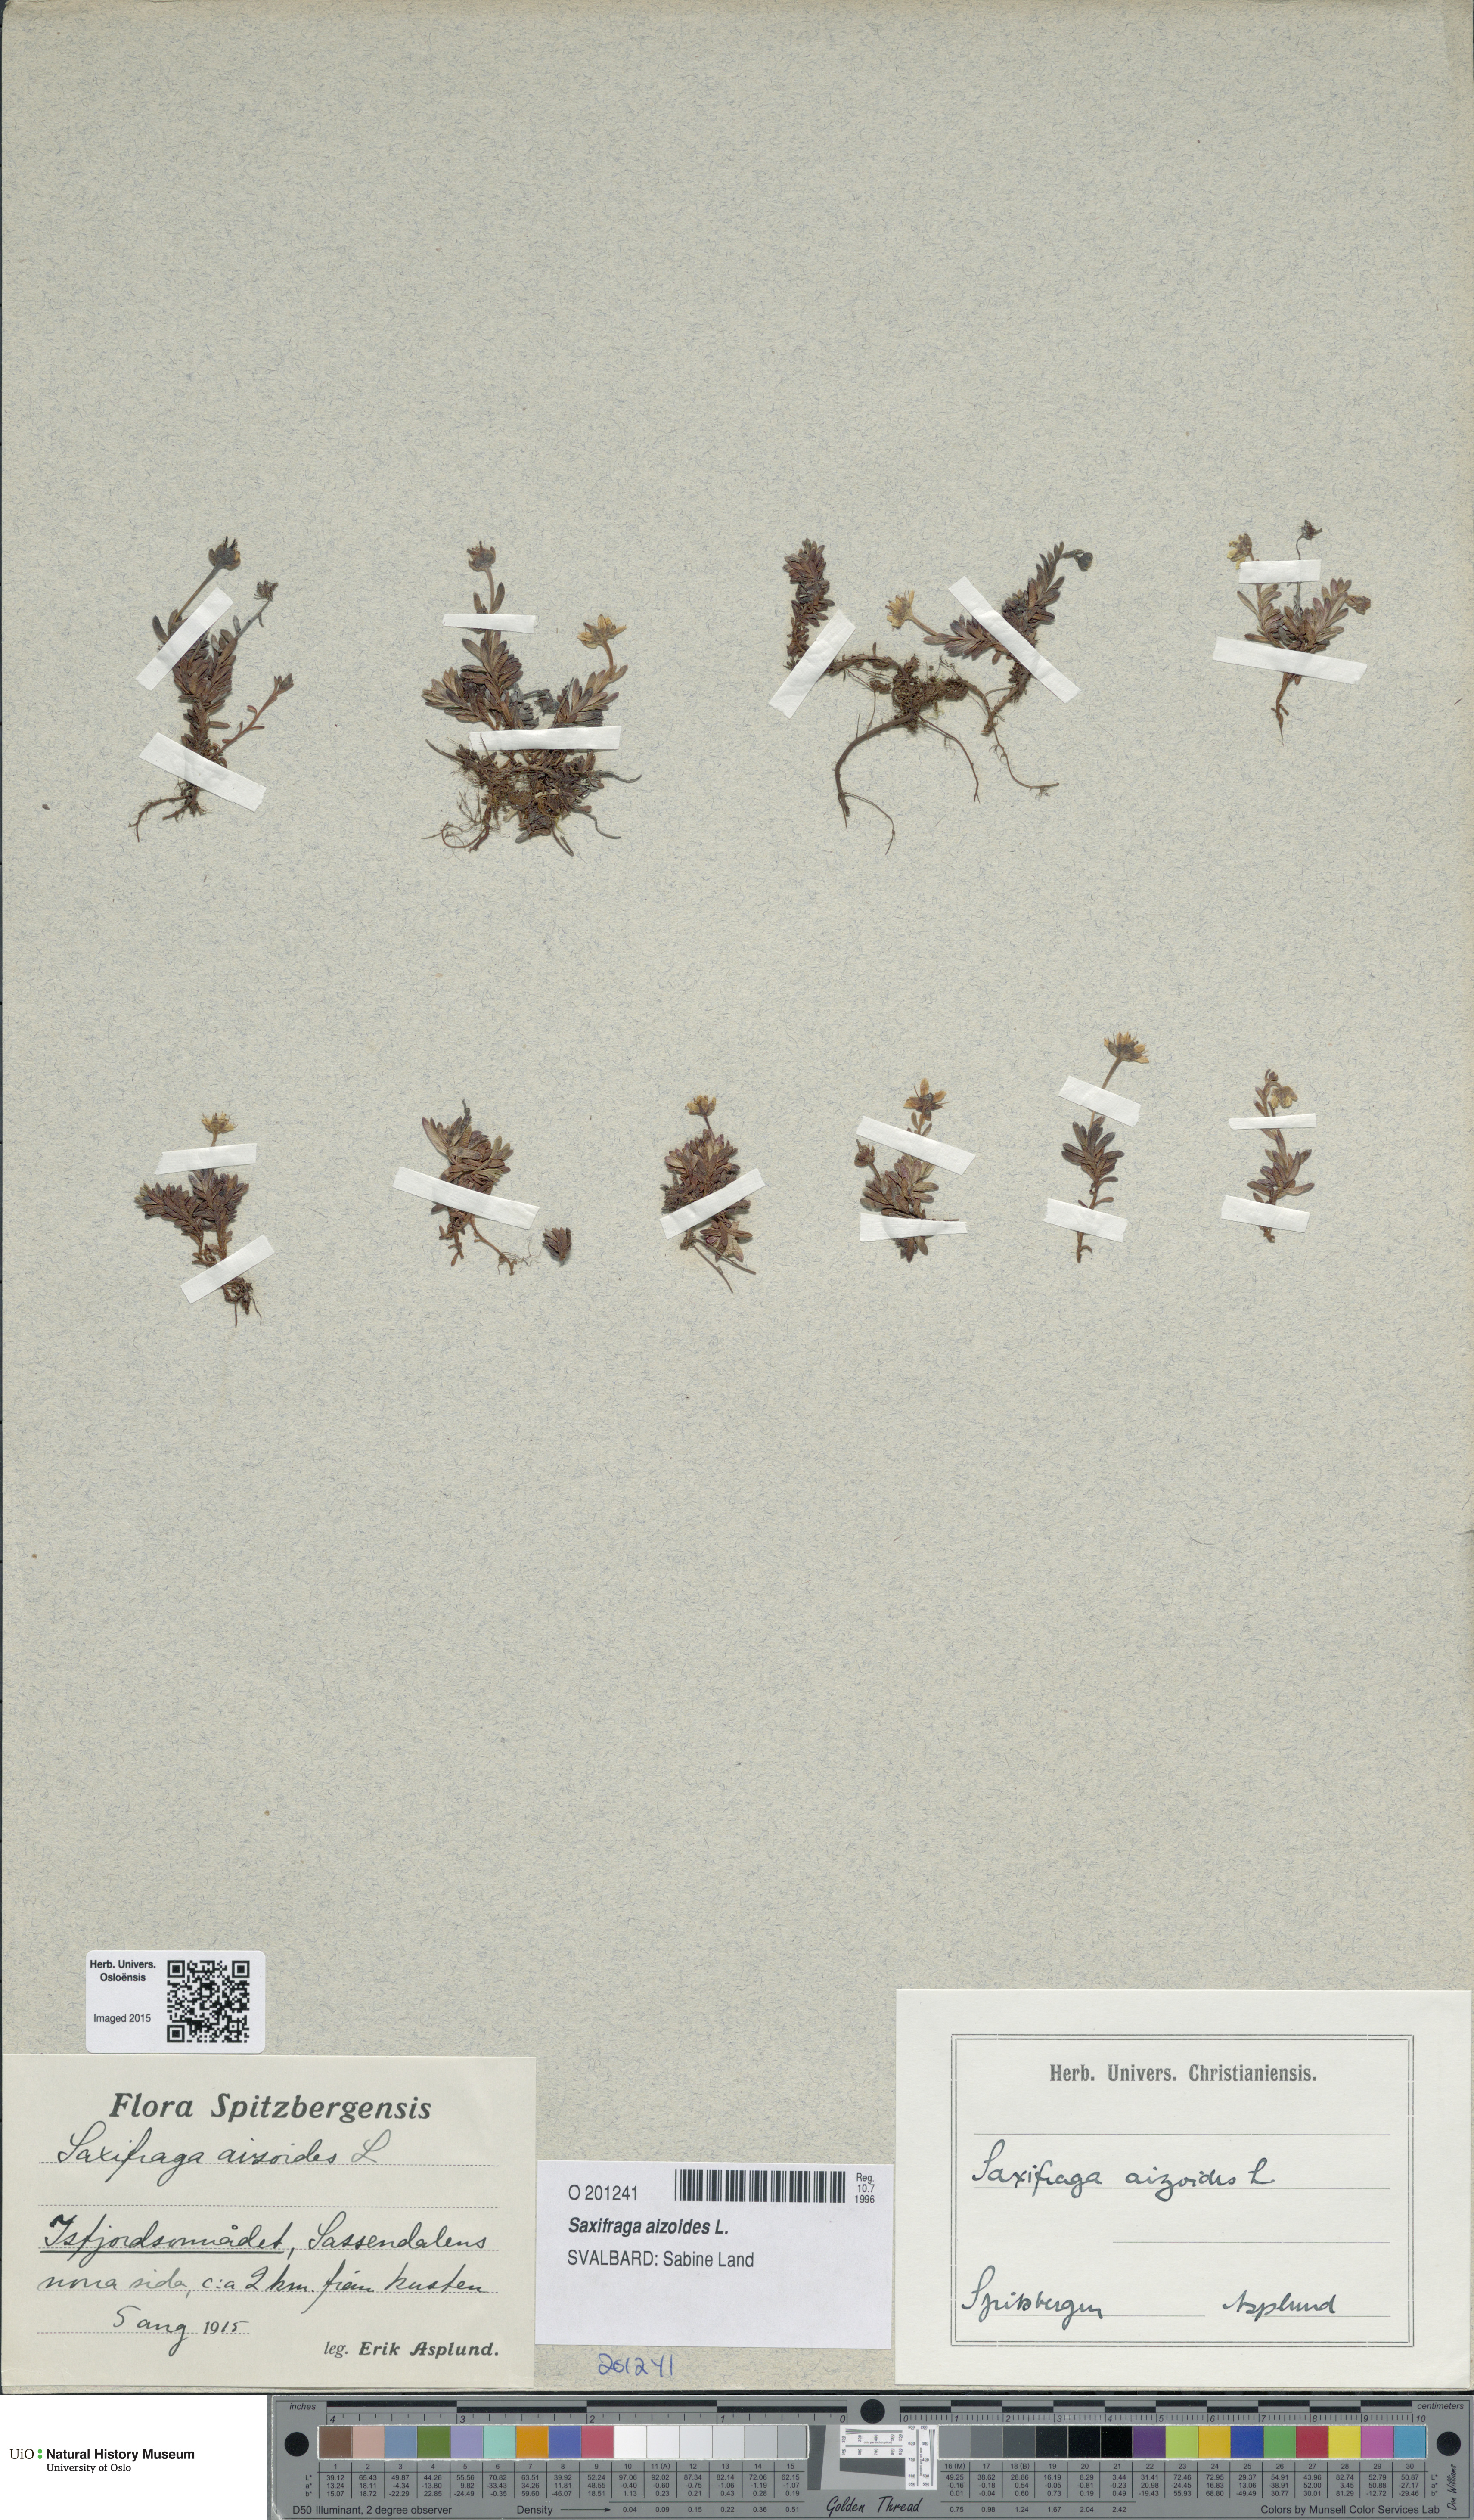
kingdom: Plantae
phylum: Tracheophyta
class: Magnoliopsida
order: Saxifragales
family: Saxifragaceae
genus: Saxifraga
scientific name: Saxifraga aizoides
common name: Yellow mountain saxifrage
